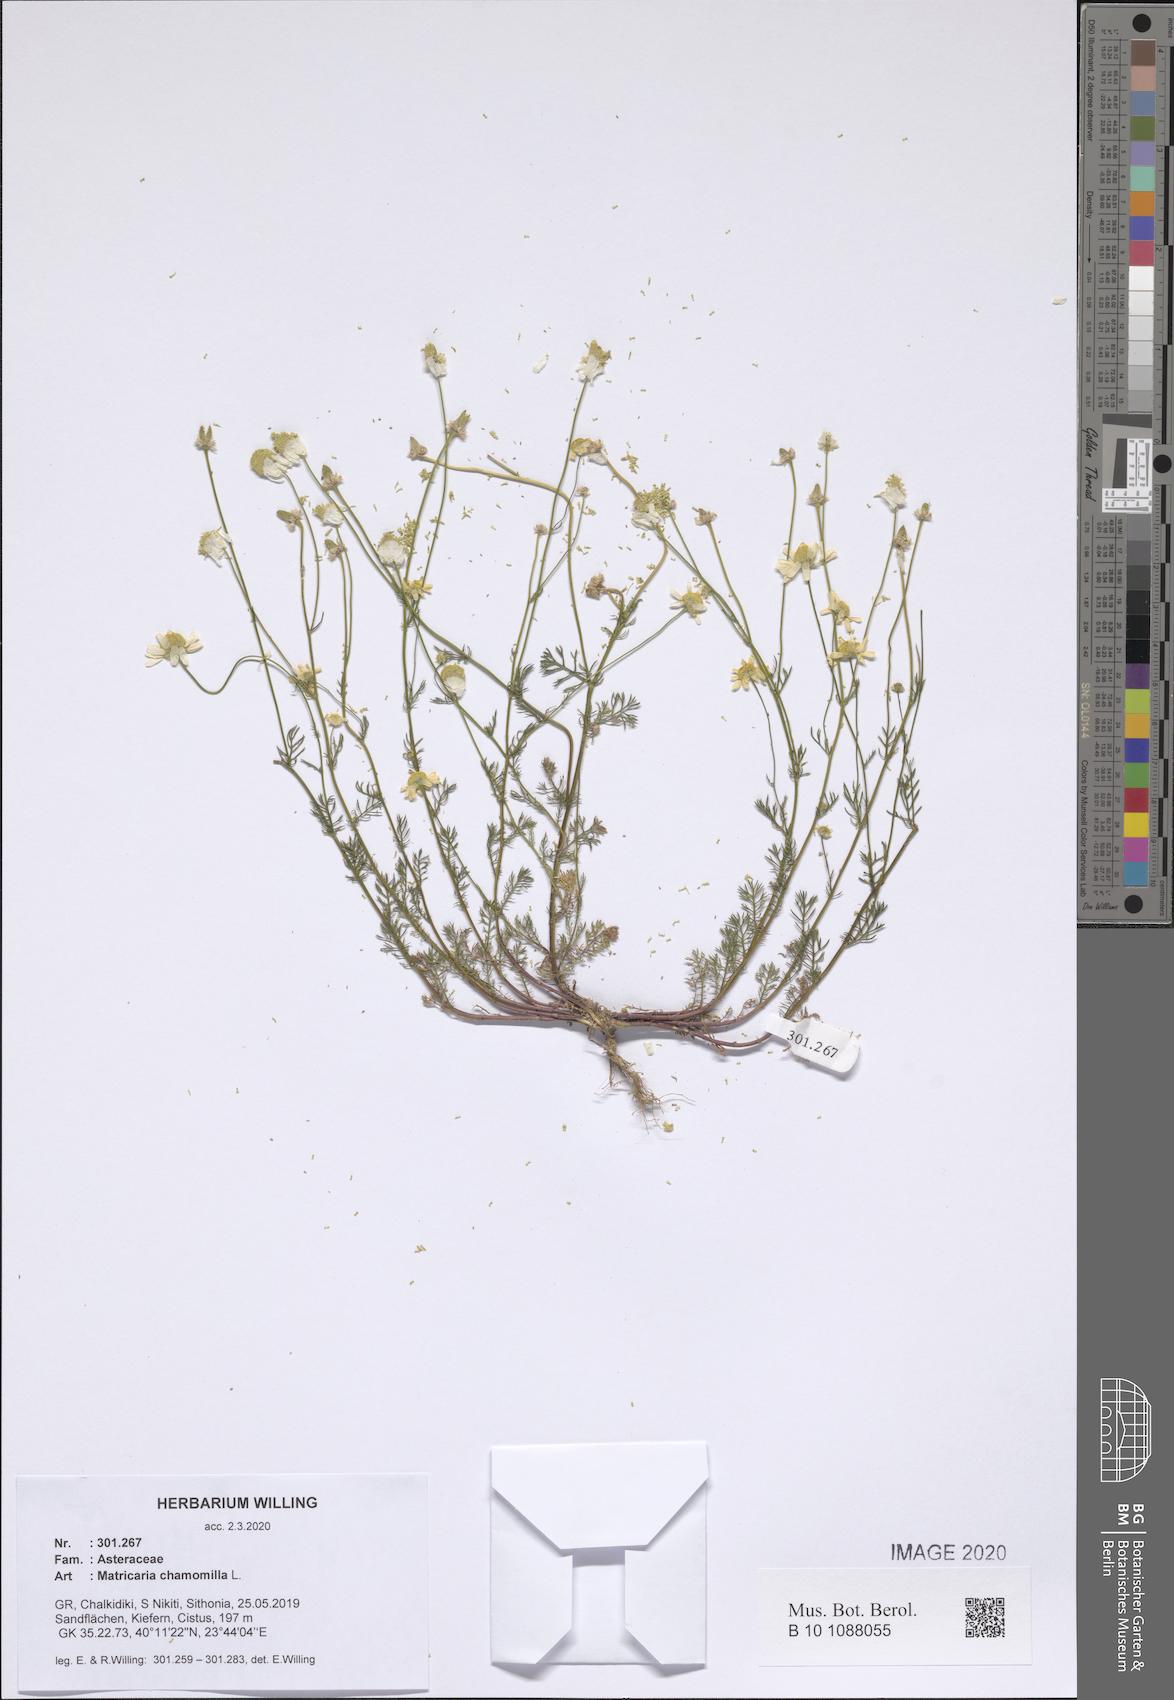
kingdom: Plantae
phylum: Tracheophyta
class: Magnoliopsida
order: Asterales
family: Asteraceae
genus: Matricaria
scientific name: Matricaria chamomilla
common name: Scented mayweed
